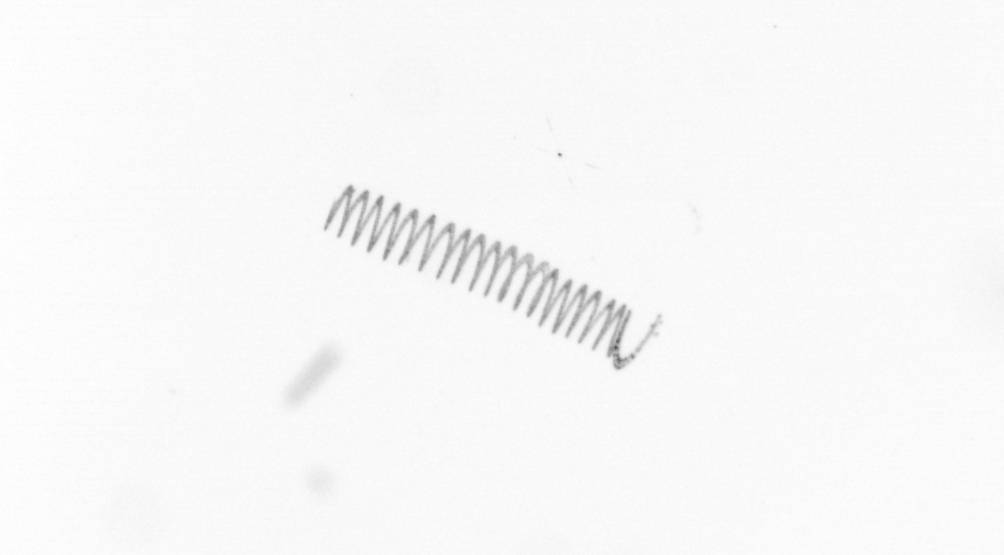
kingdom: Chromista
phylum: Ochrophyta
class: Bacillariophyceae
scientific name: Bacillariophyceae
